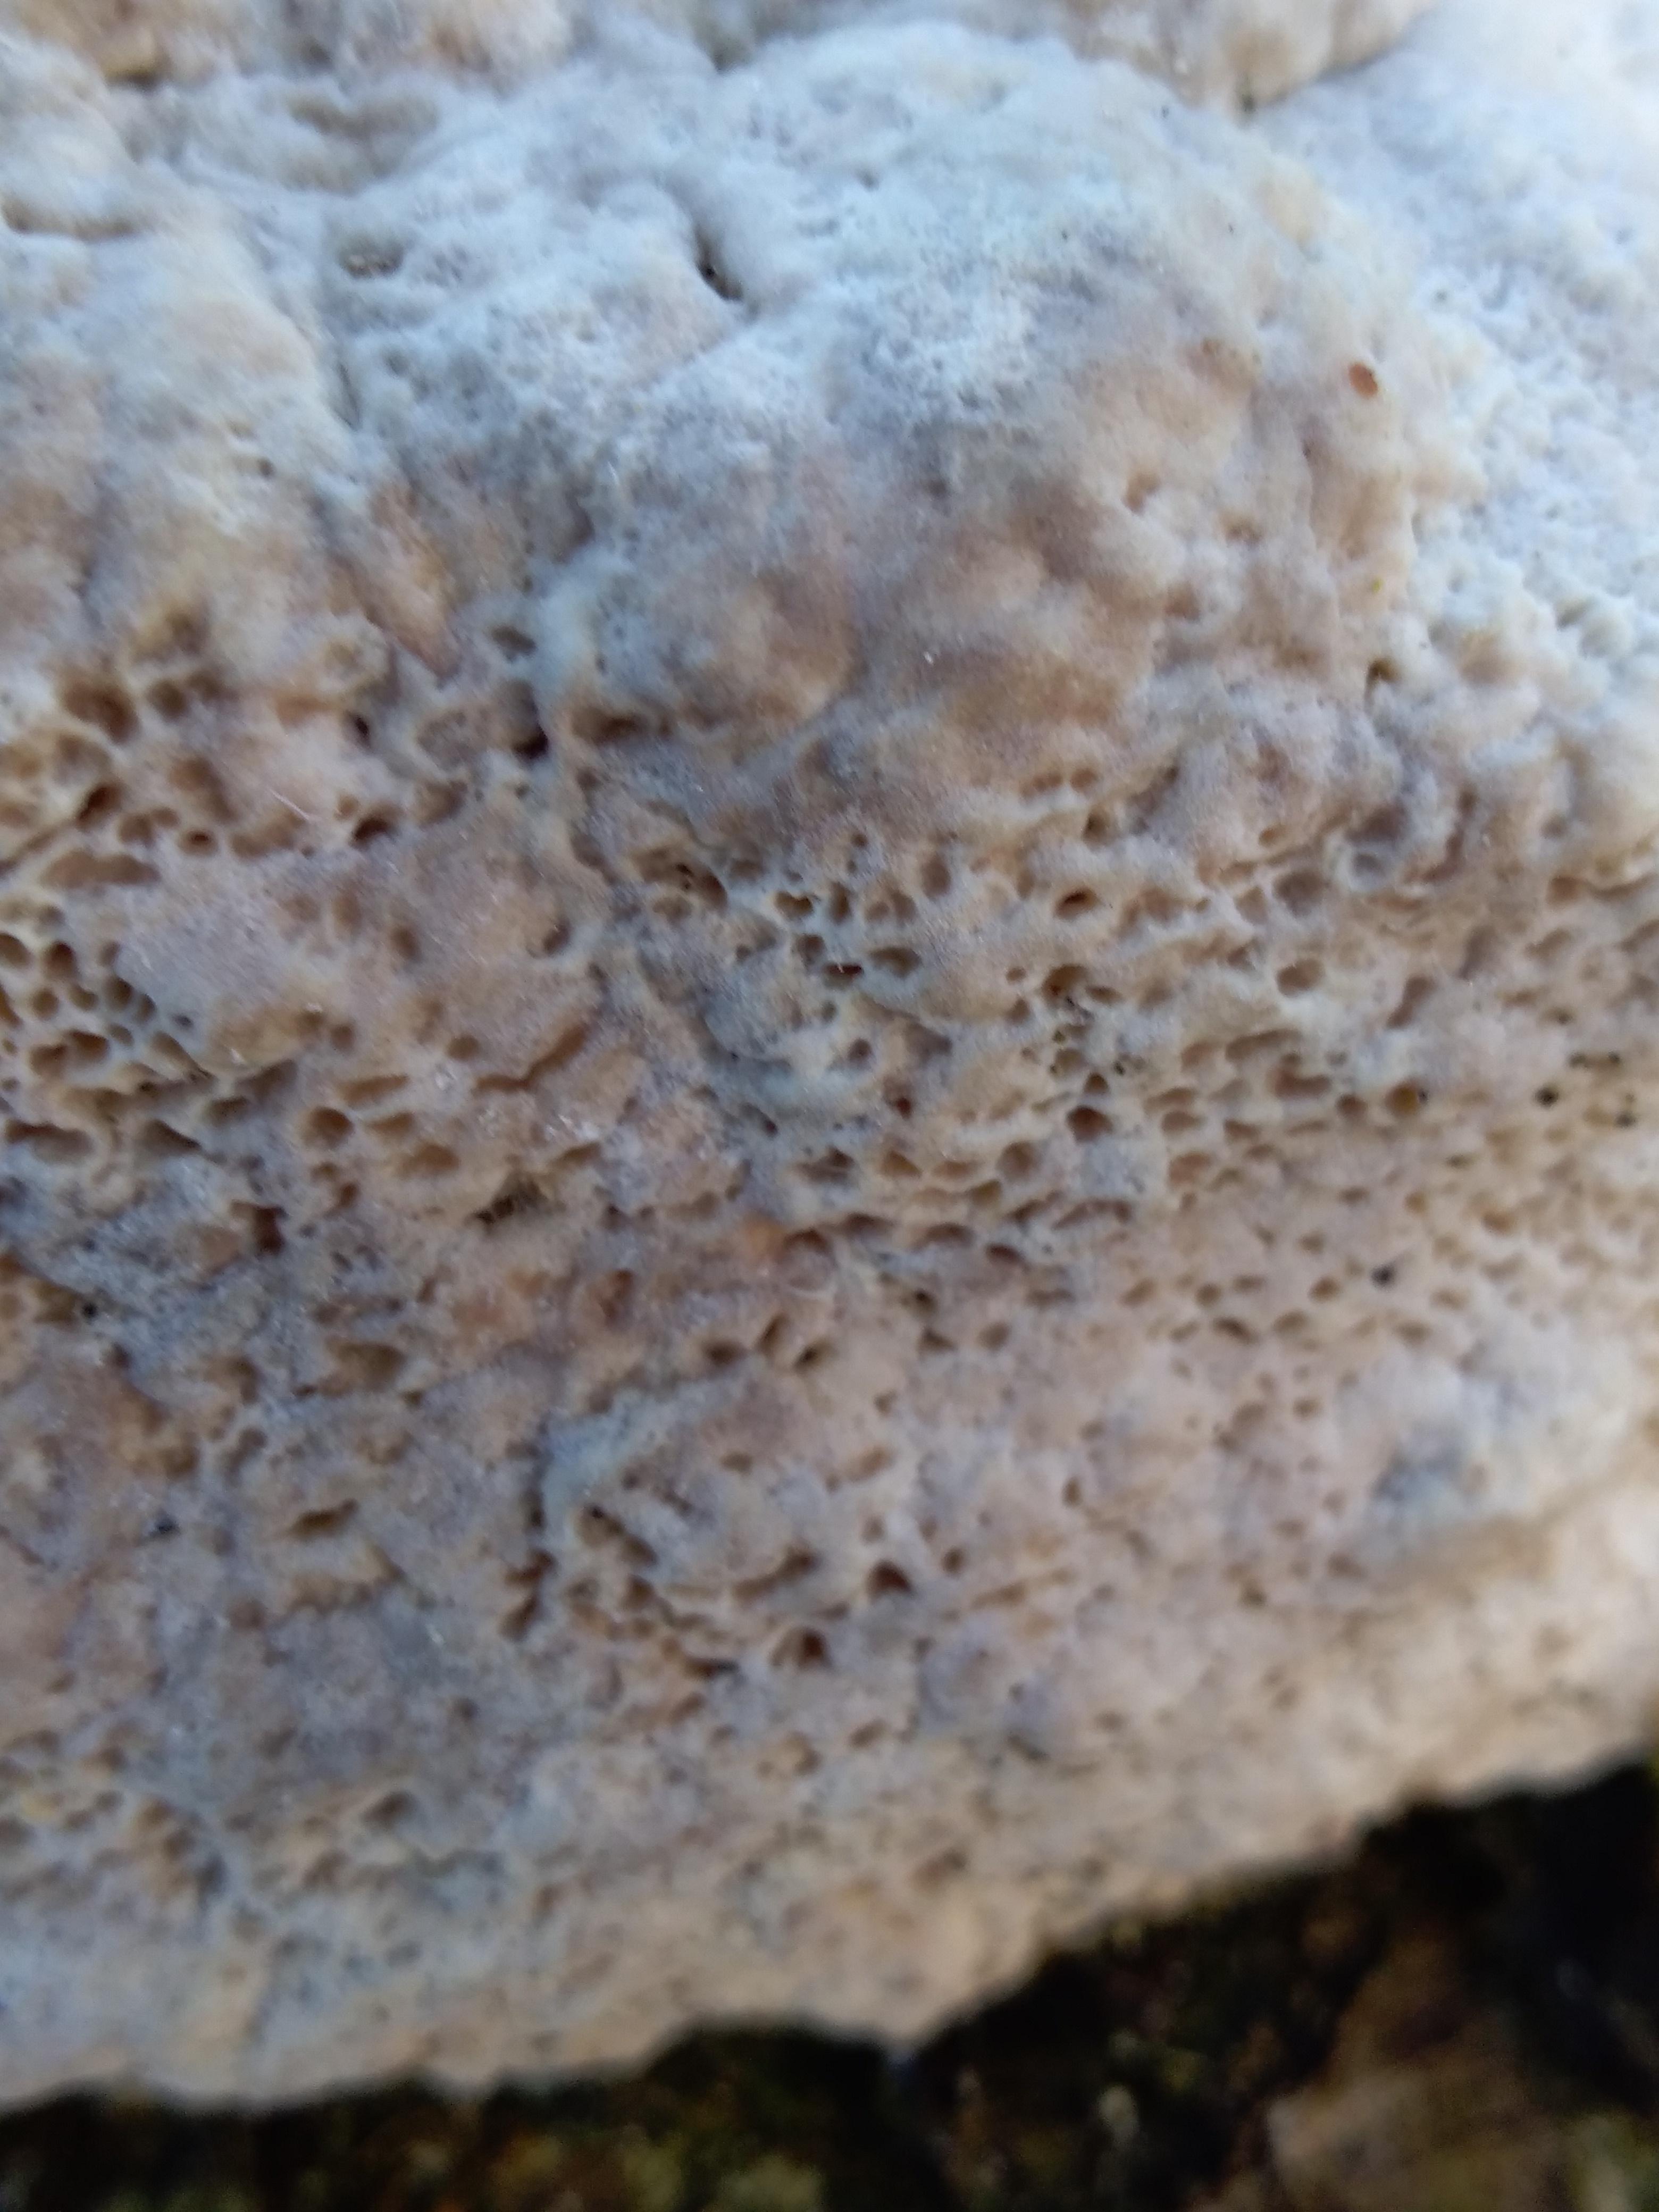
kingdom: Fungi
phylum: Basidiomycota
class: Agaricomycetes
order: Polyporales
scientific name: Polyporales
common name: poresvampordenen
